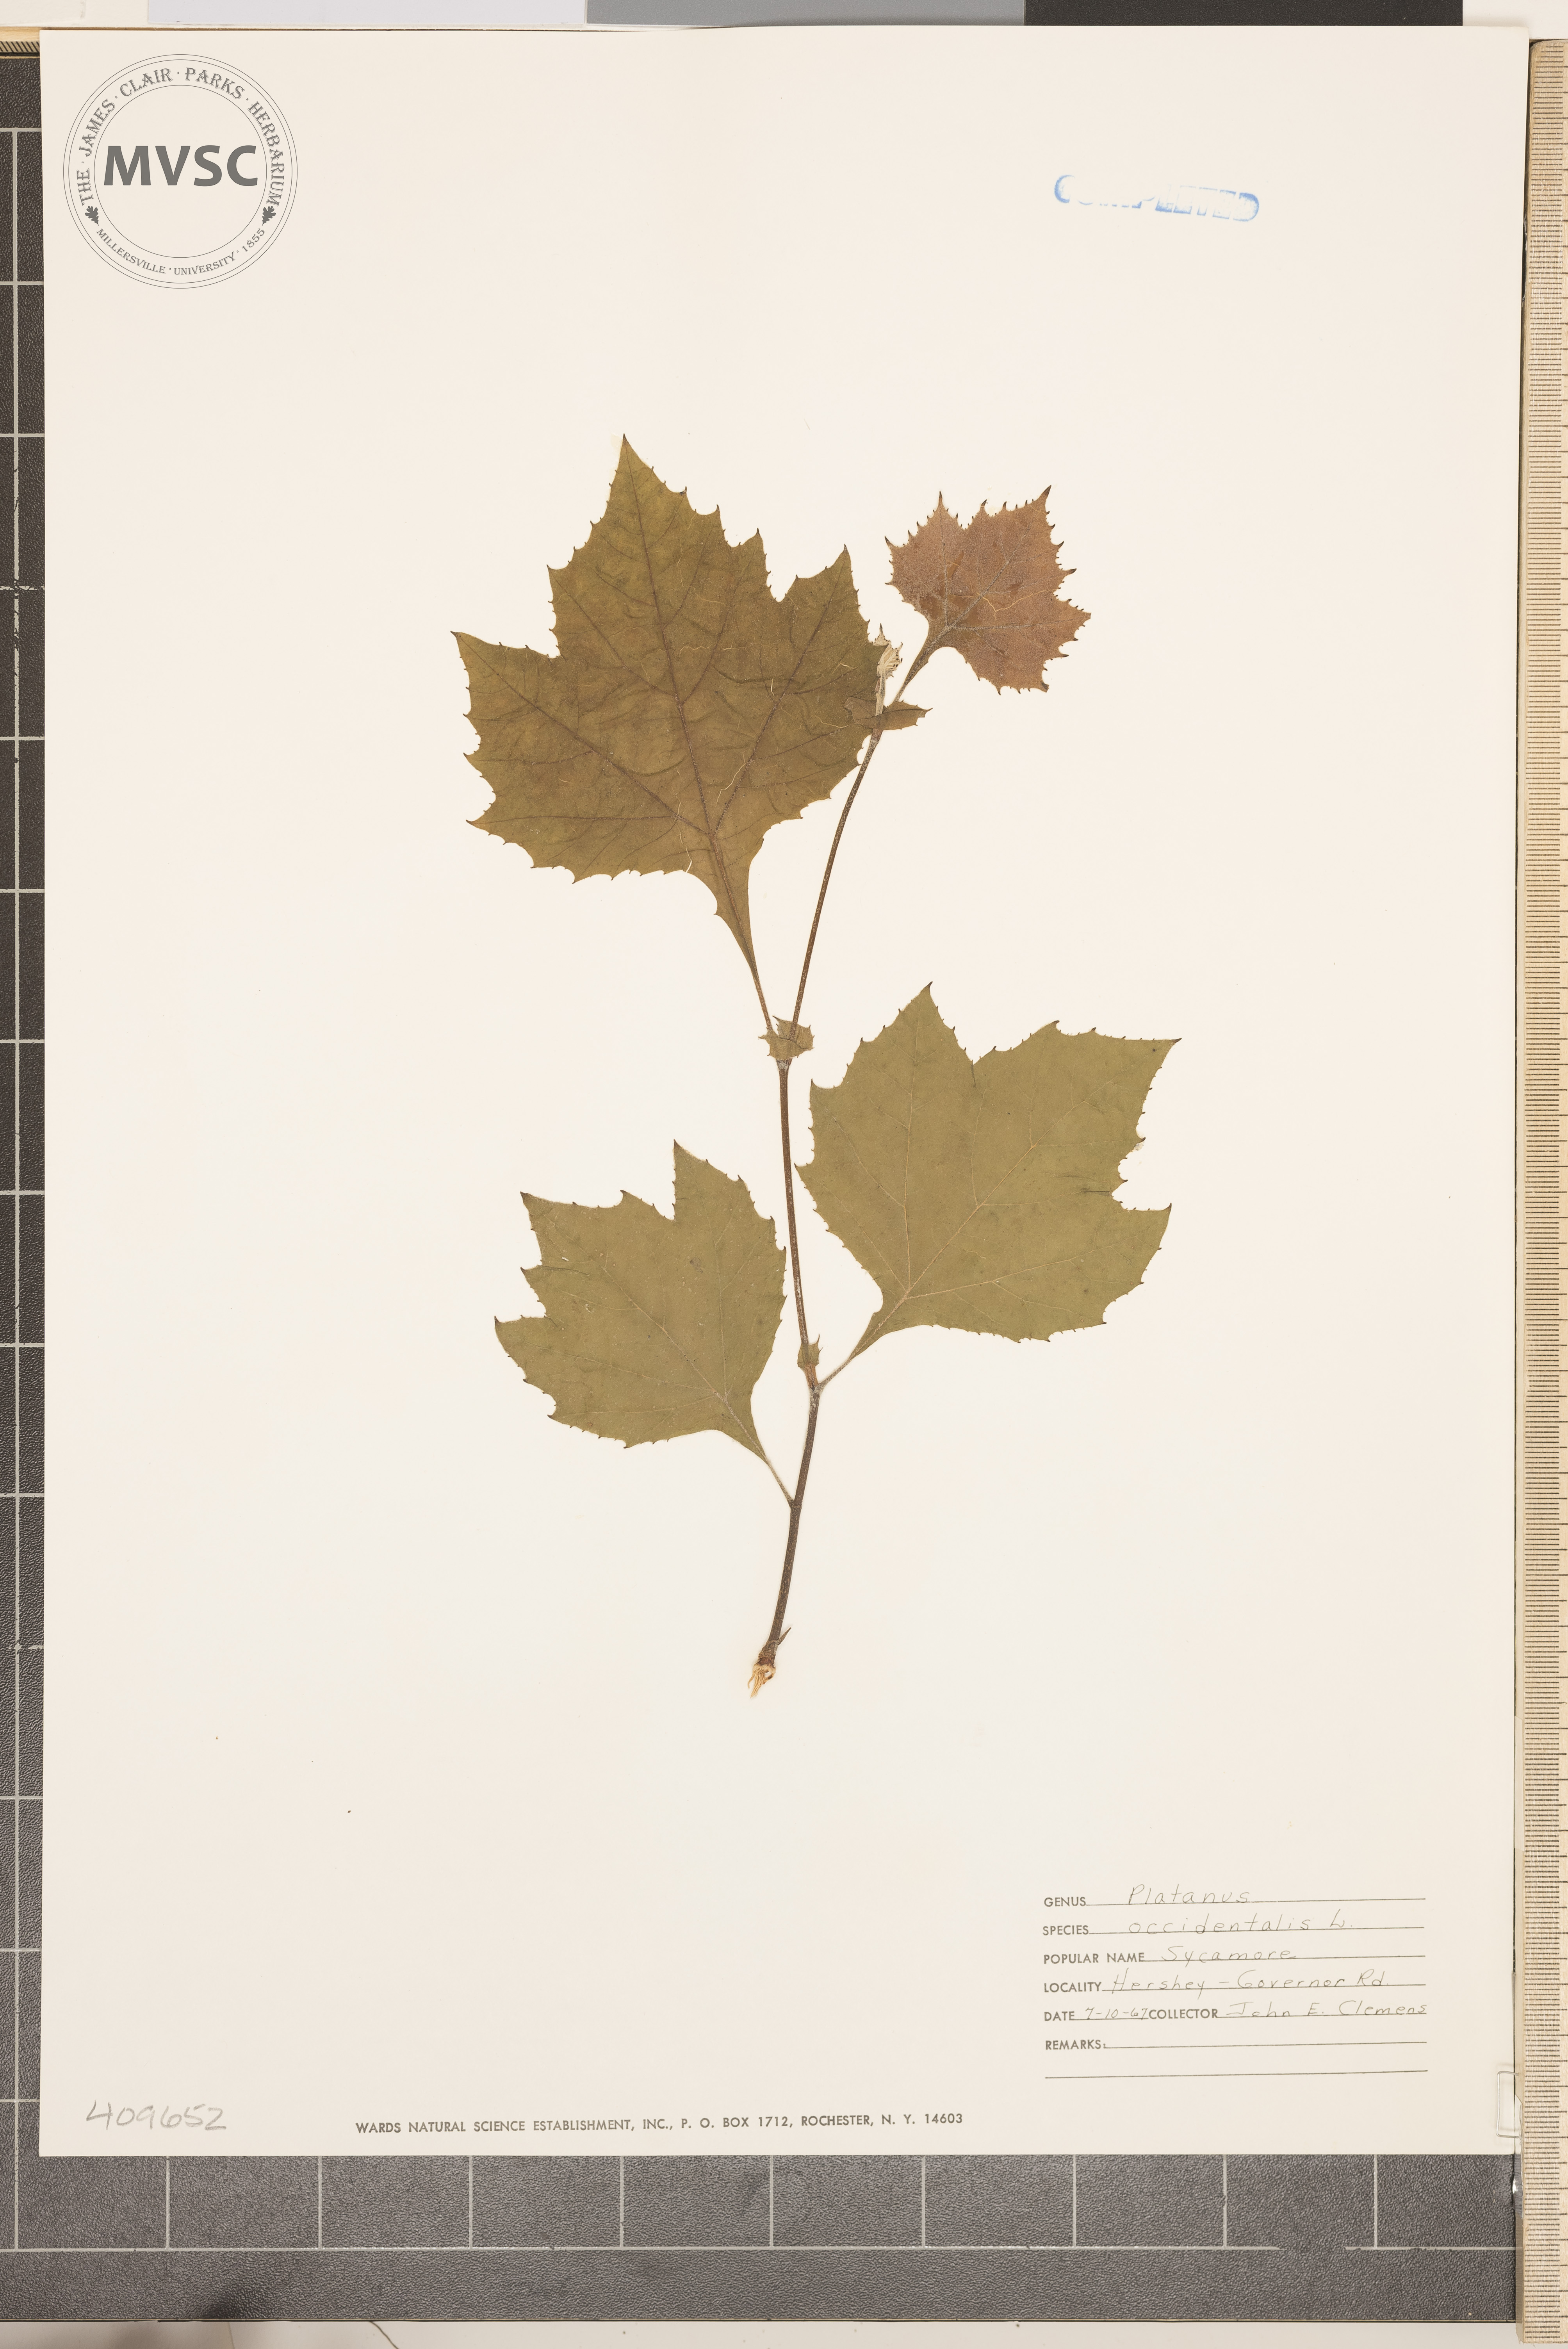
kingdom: Plantae
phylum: Tracheophyta
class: Magnoliopsida
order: Proteales
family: Platanaceae
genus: Platanus
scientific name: Platanus occidentalis
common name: American sycamore
